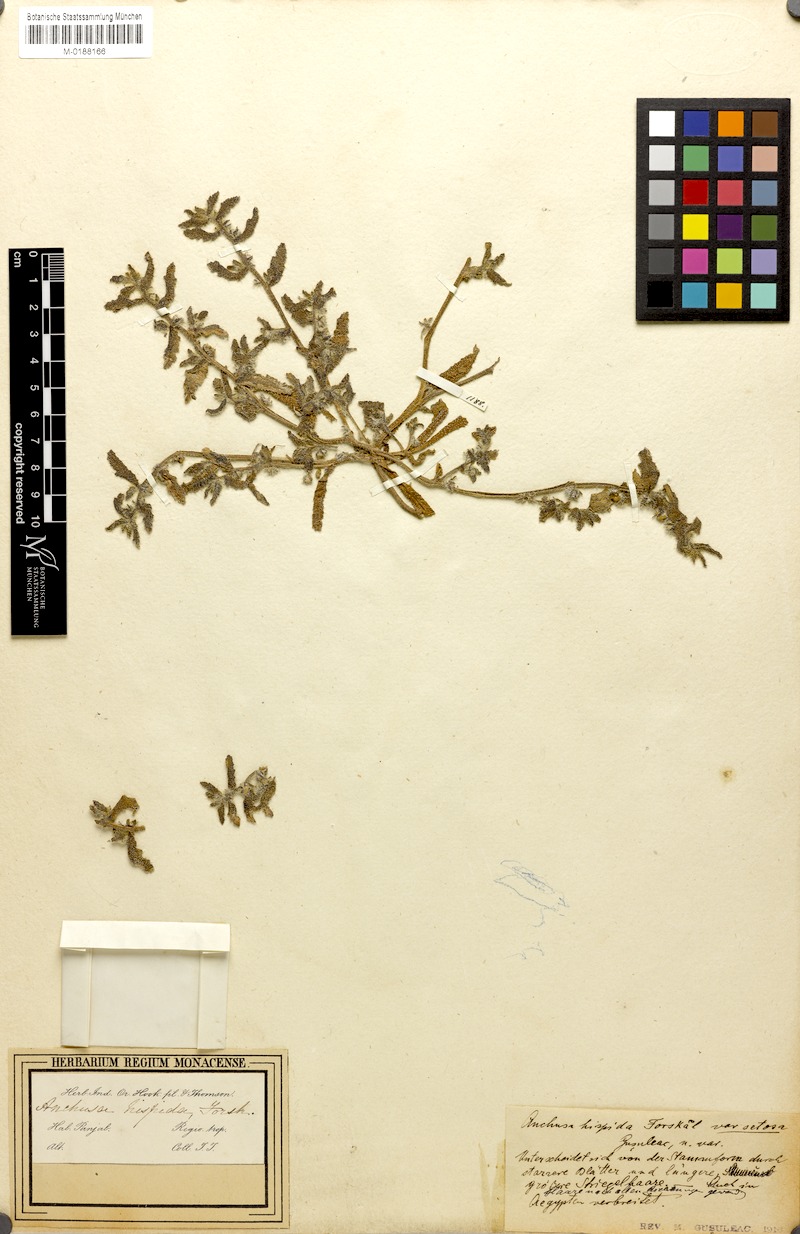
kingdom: Plantae
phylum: Tracheophyta
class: Magnoliopsida
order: Boraginales
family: Boraginaceae
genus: Gastrocotyle
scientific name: Gastrocotyle hispida
